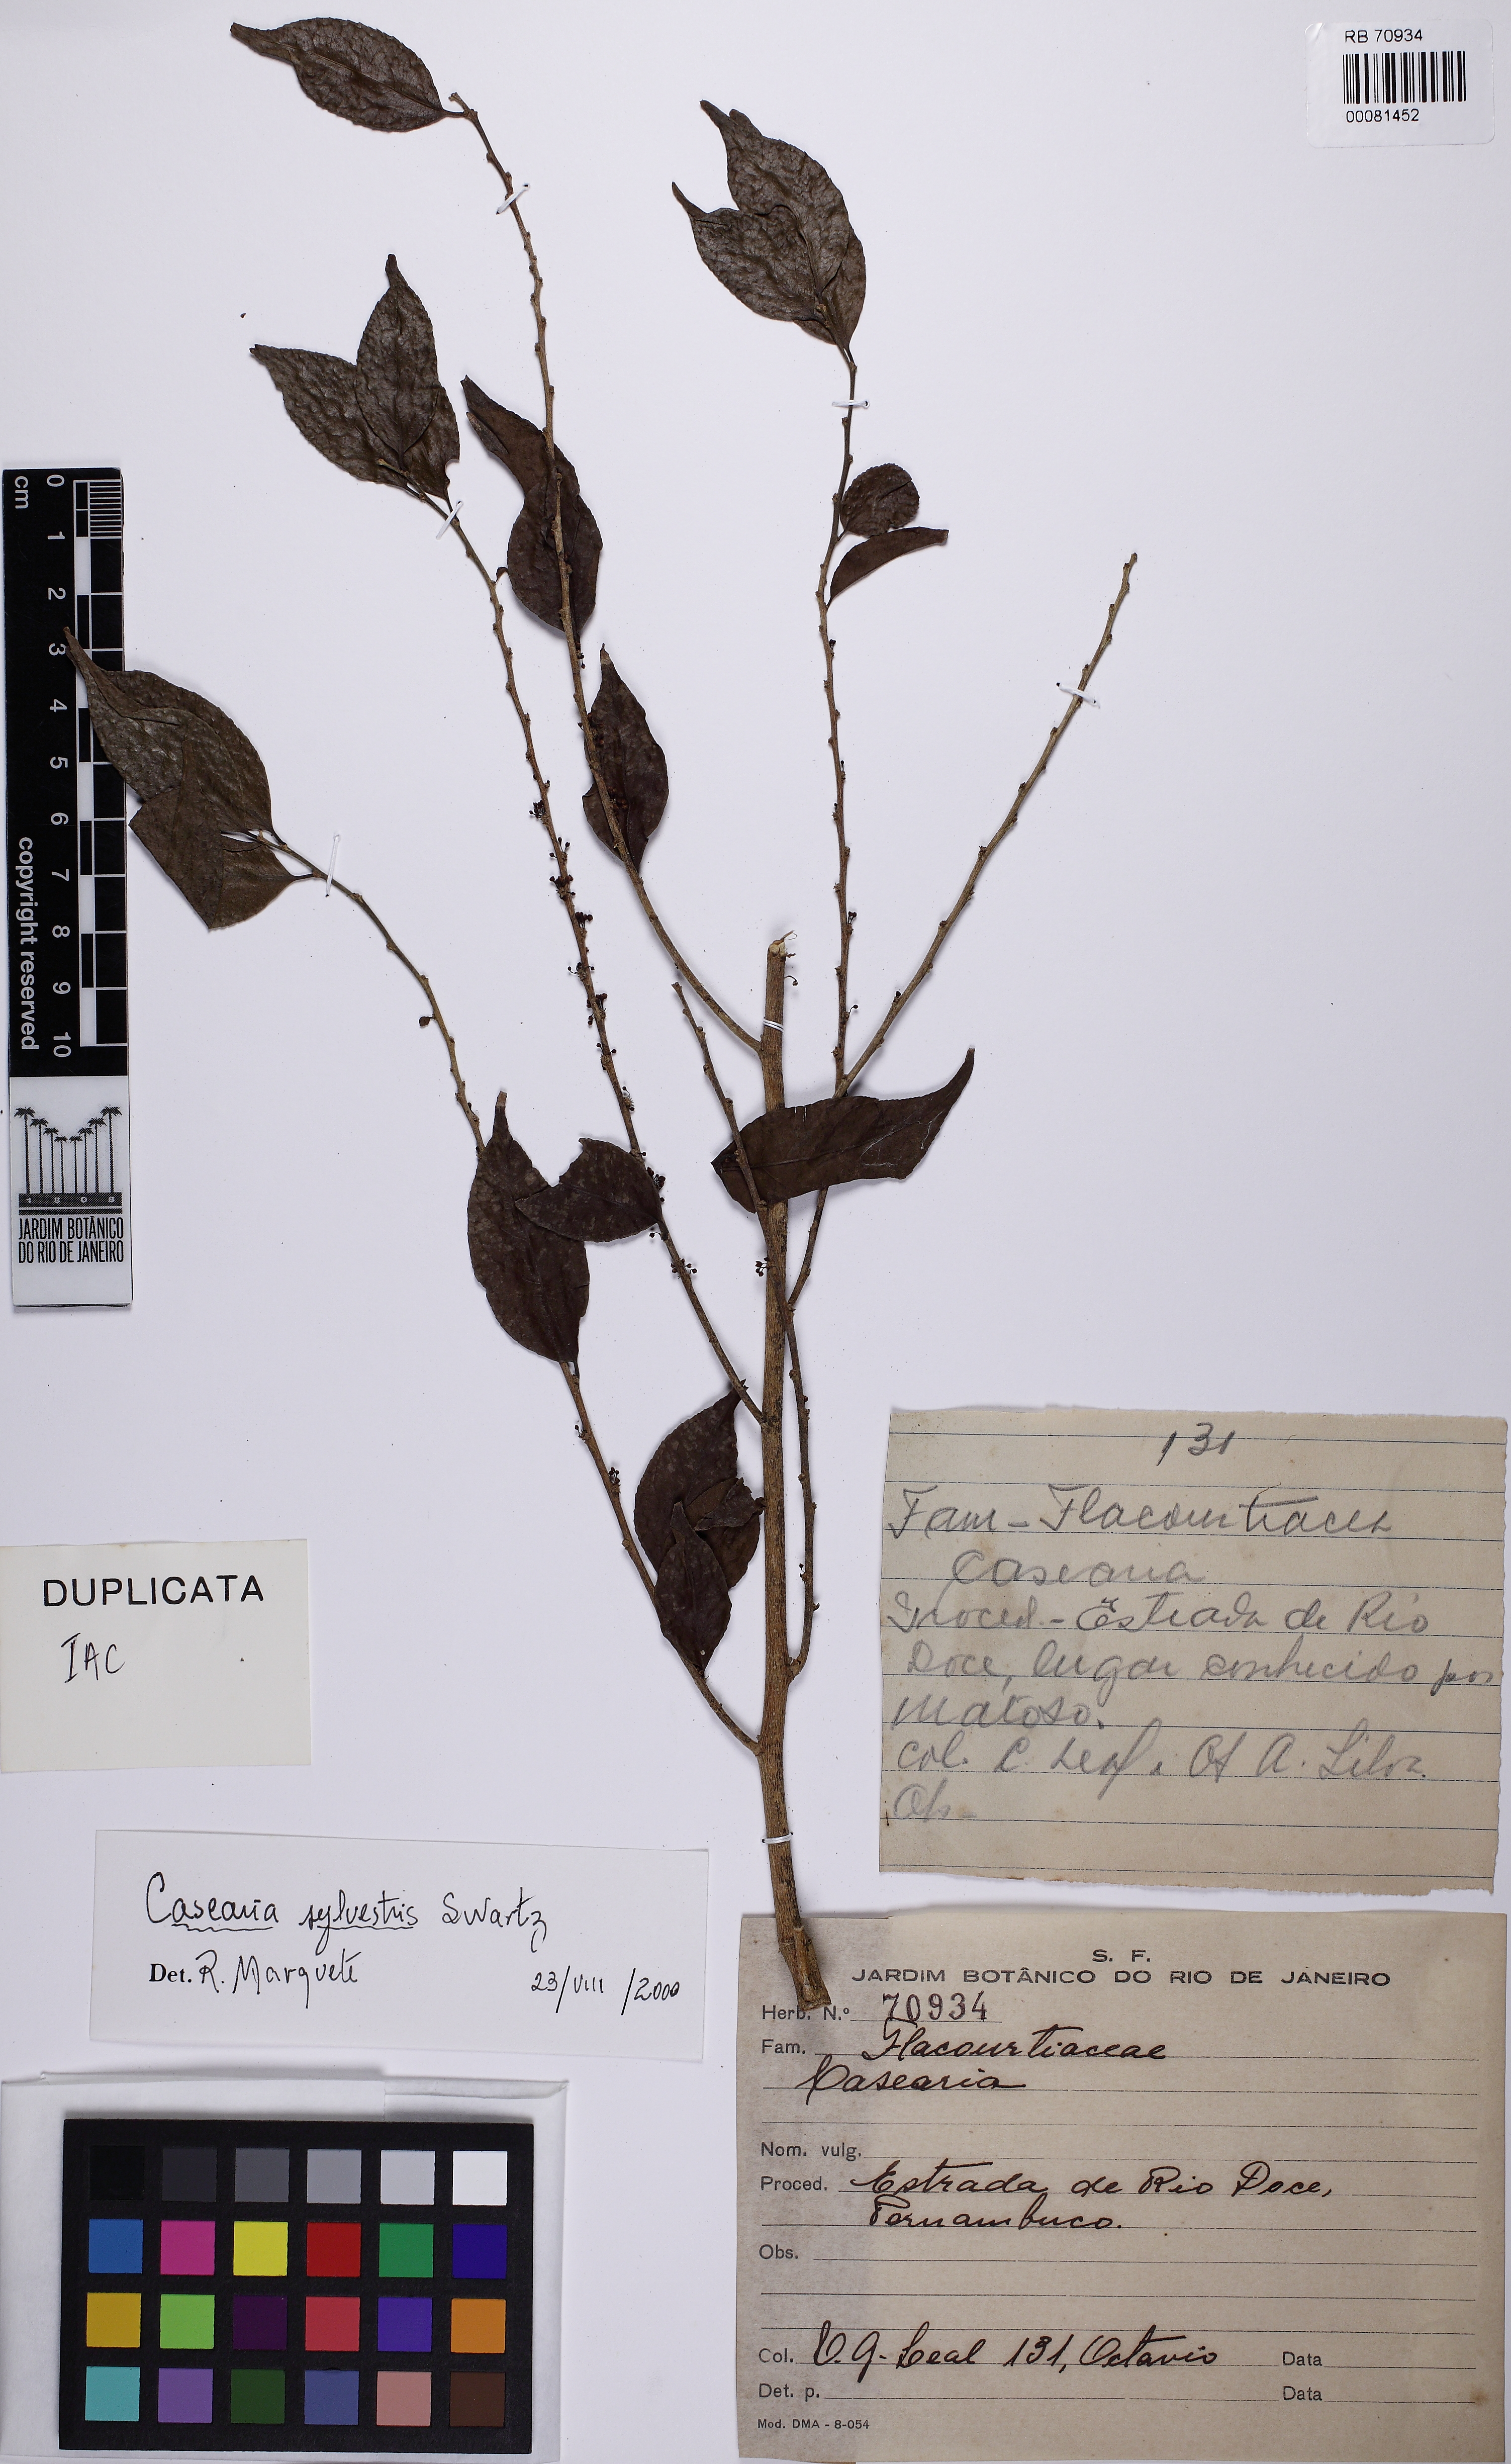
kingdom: Plantae
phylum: Tracheophyta
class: Magnoliopsida
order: Malpighiales
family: Salicaceae
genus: Casearia
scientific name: Casearia sylvestris
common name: Wild sage
